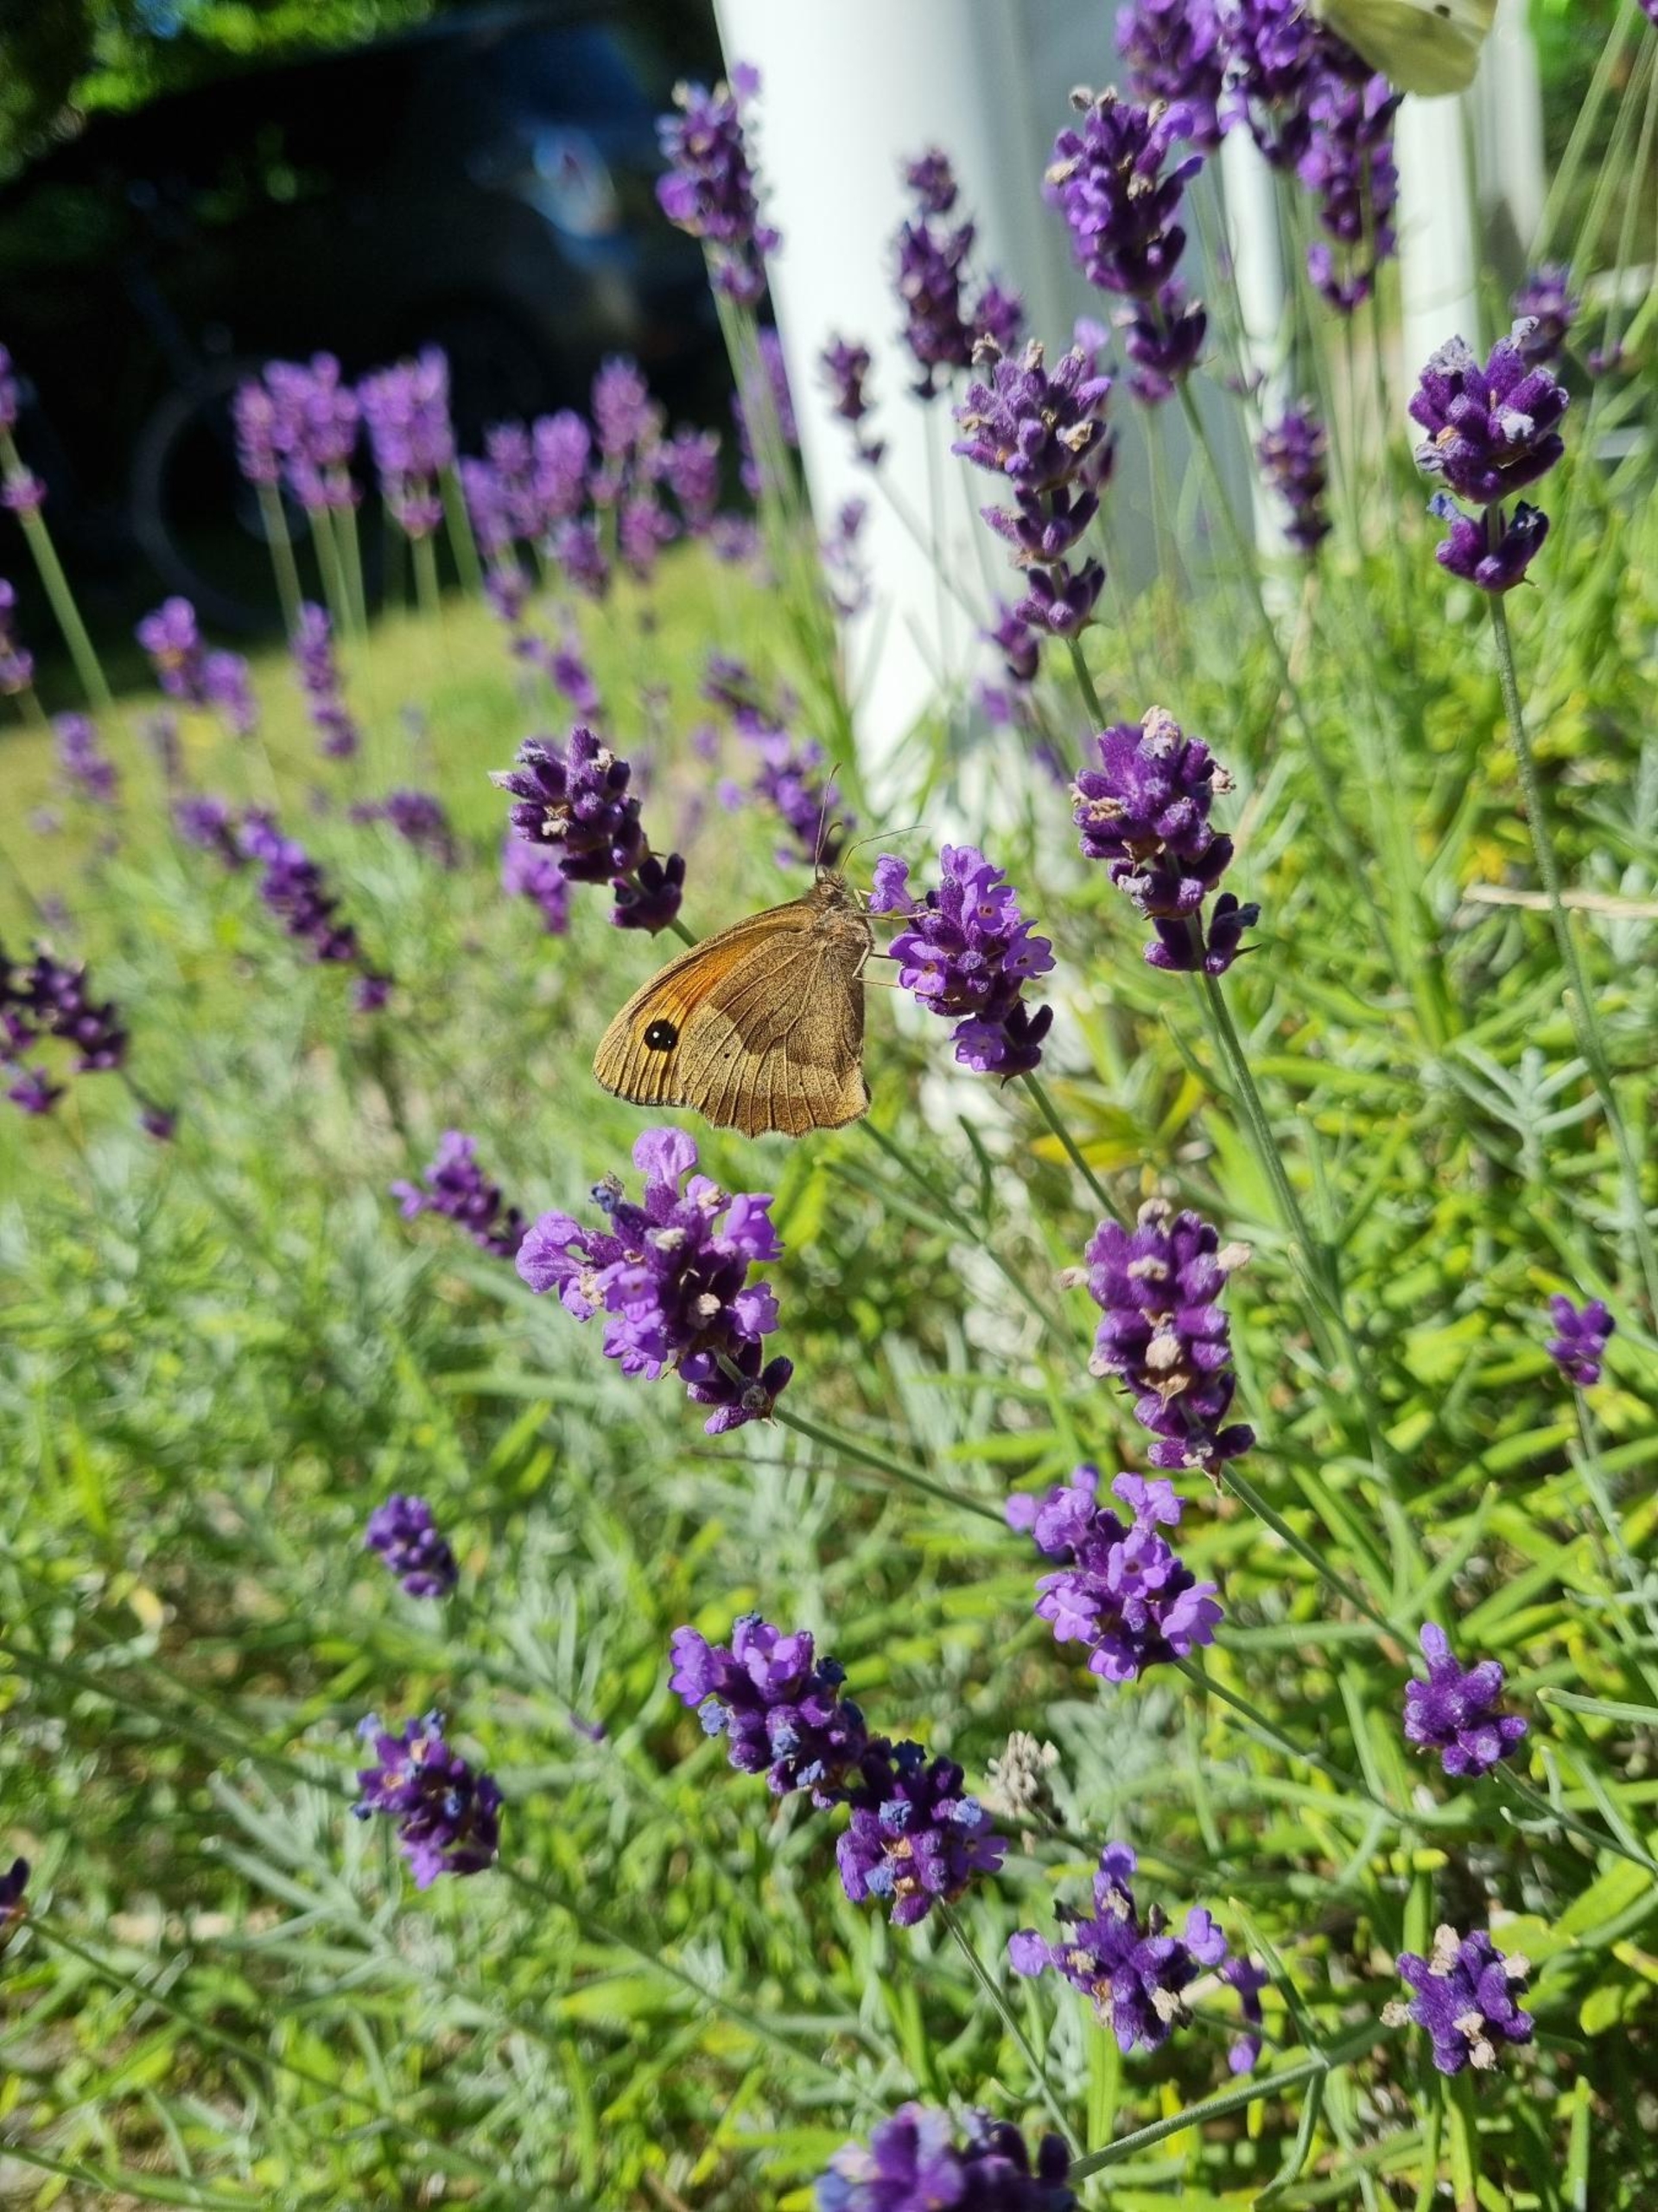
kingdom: Animalia
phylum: Arthropoda
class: Insecta
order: Lepidoptera
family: Nymphalidae
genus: Maniola
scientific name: Maniola jurtina
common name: Græsrandøje
